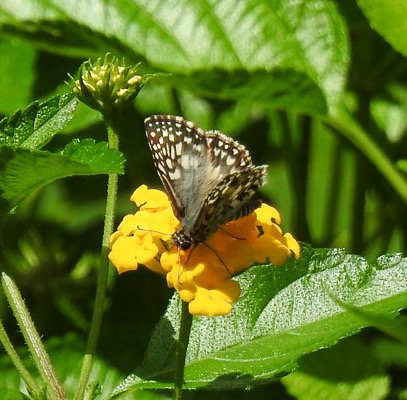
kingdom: Animalia
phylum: Arthropoda
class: Insecta
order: Lepidoptera
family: Hesperiidae
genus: Pyrgus
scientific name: Pyrgus oileus
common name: Tropical Checkered-Skipper
